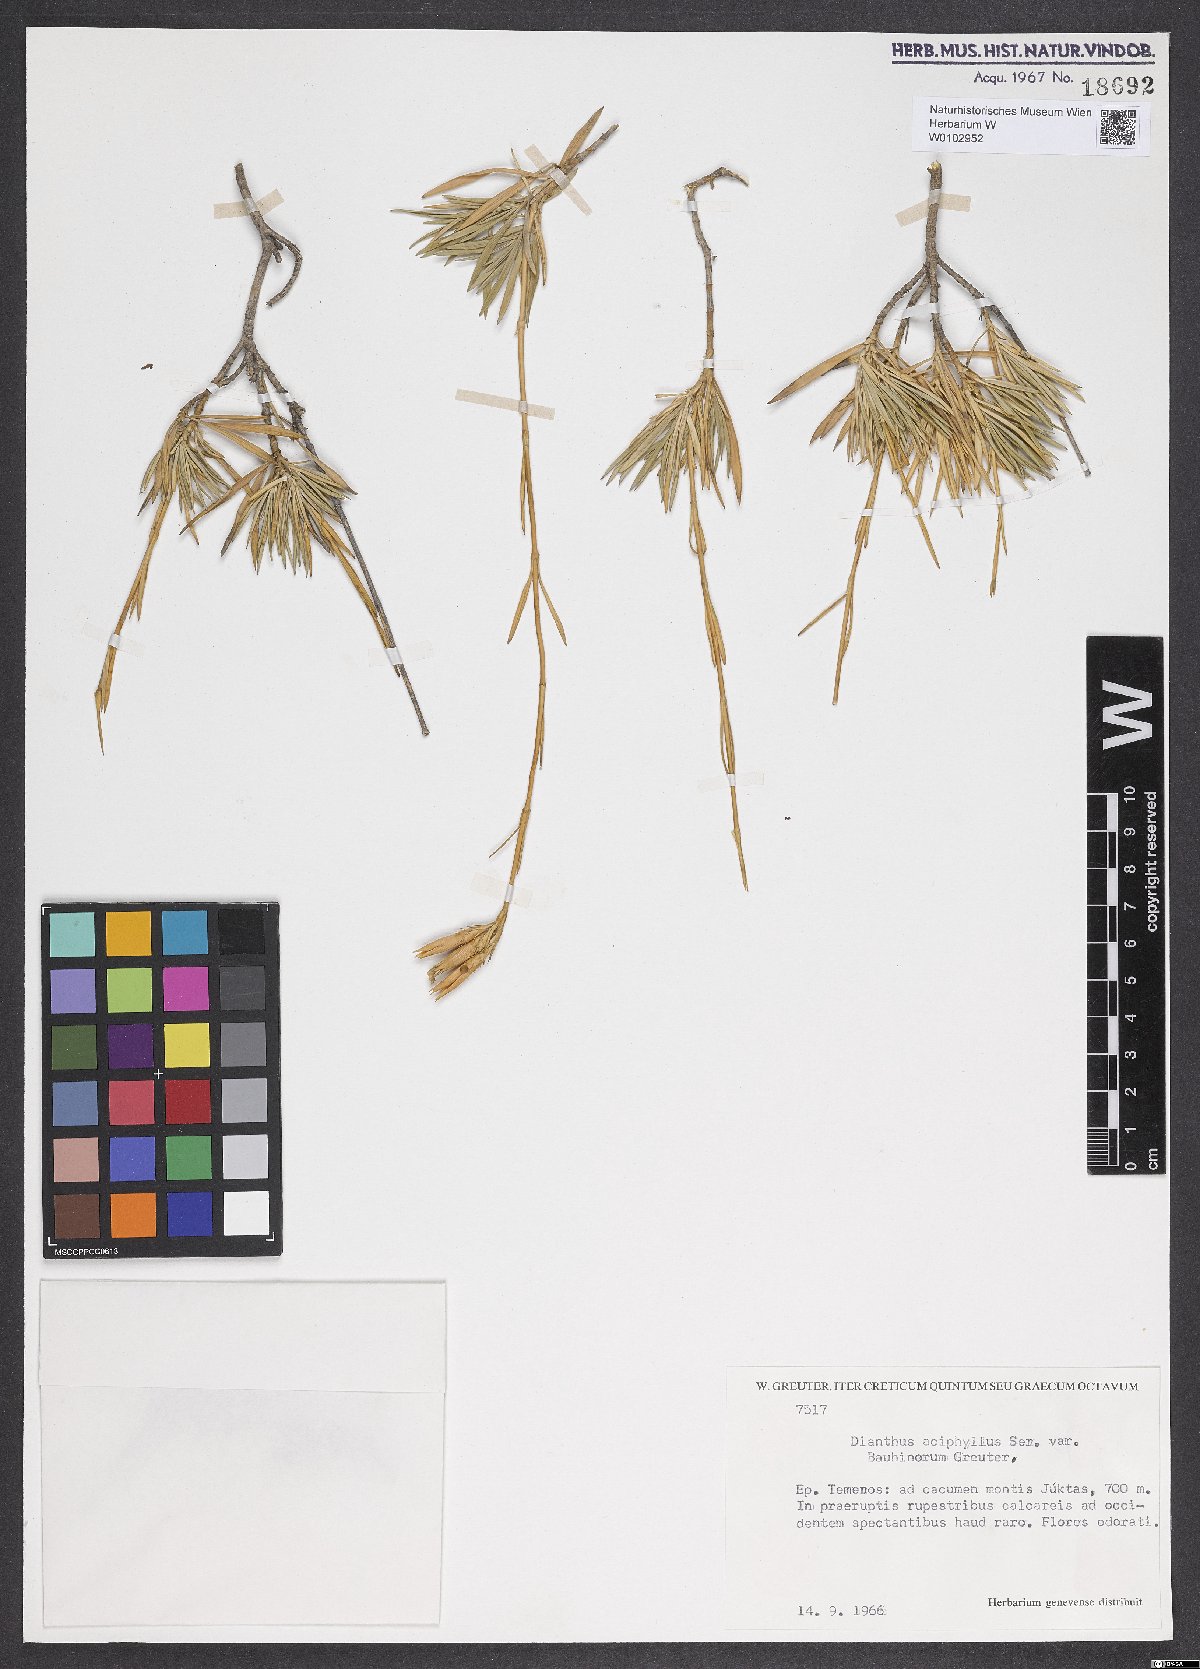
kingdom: Plantae
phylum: Tracheophyta
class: Magnoliopsida
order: Caryophyllales
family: Caryophyllaceae
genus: Dianthus
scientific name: Dianthus juniperinus
